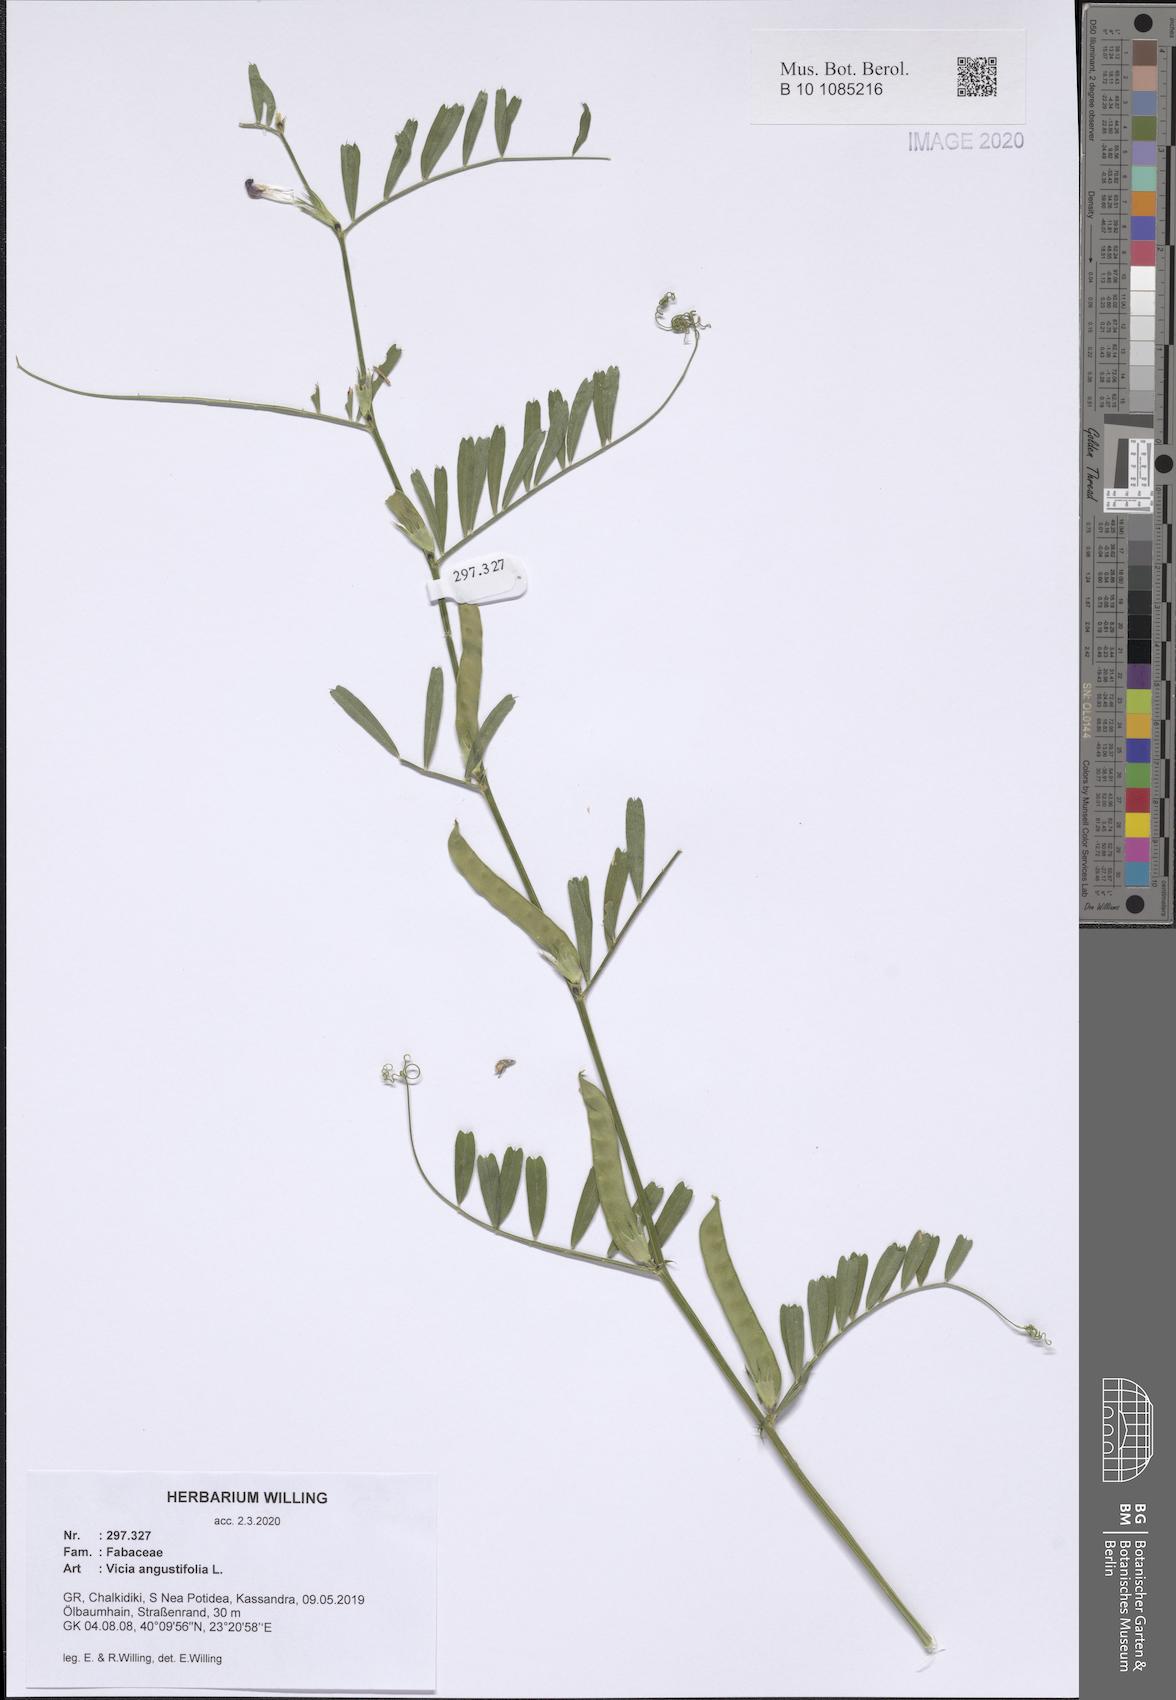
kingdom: Plantae
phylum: Tracheophyta
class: Magnoliopsida
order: Fabales
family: Fabaceae
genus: Vicia
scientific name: Vicia sativa
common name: Garden vetch
